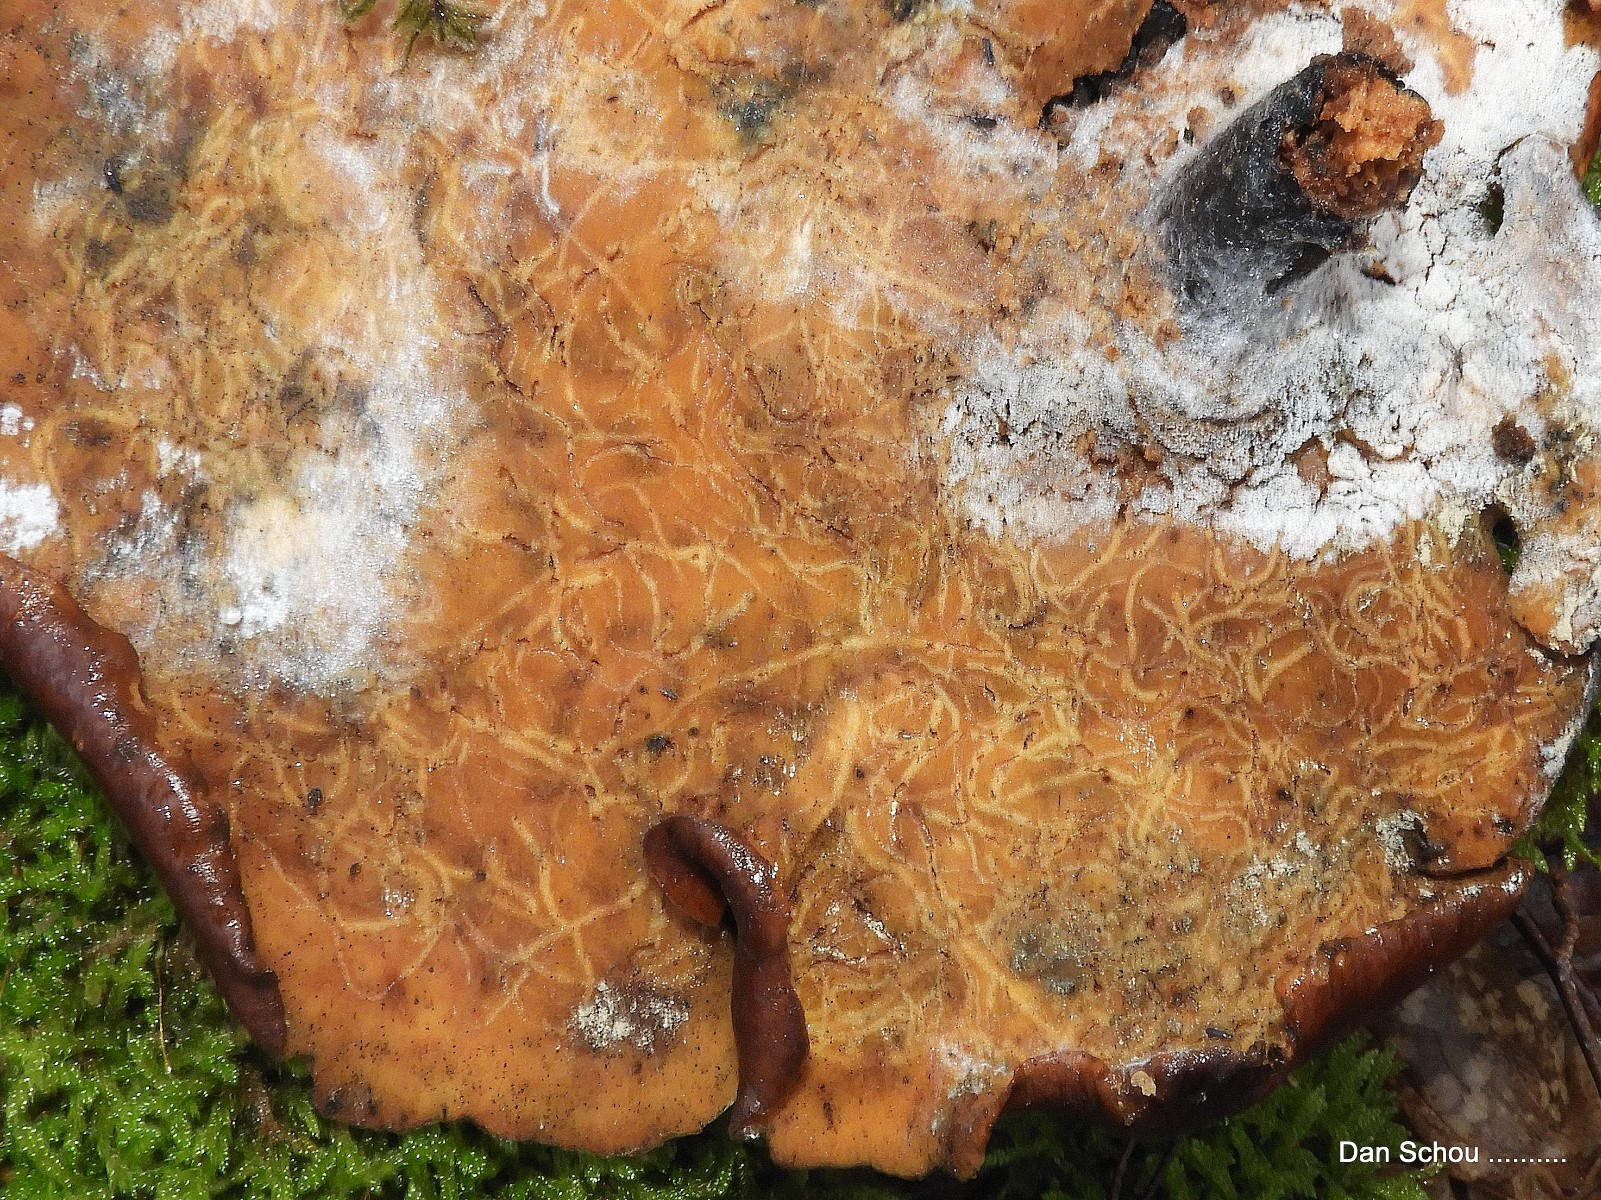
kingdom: Fungi
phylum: Basidiomycota
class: Agaricomycetes
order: Polyporales
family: Polyporaceae
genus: Picipes
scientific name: Picipes badius
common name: kastaniebrun stilkporesvamp
